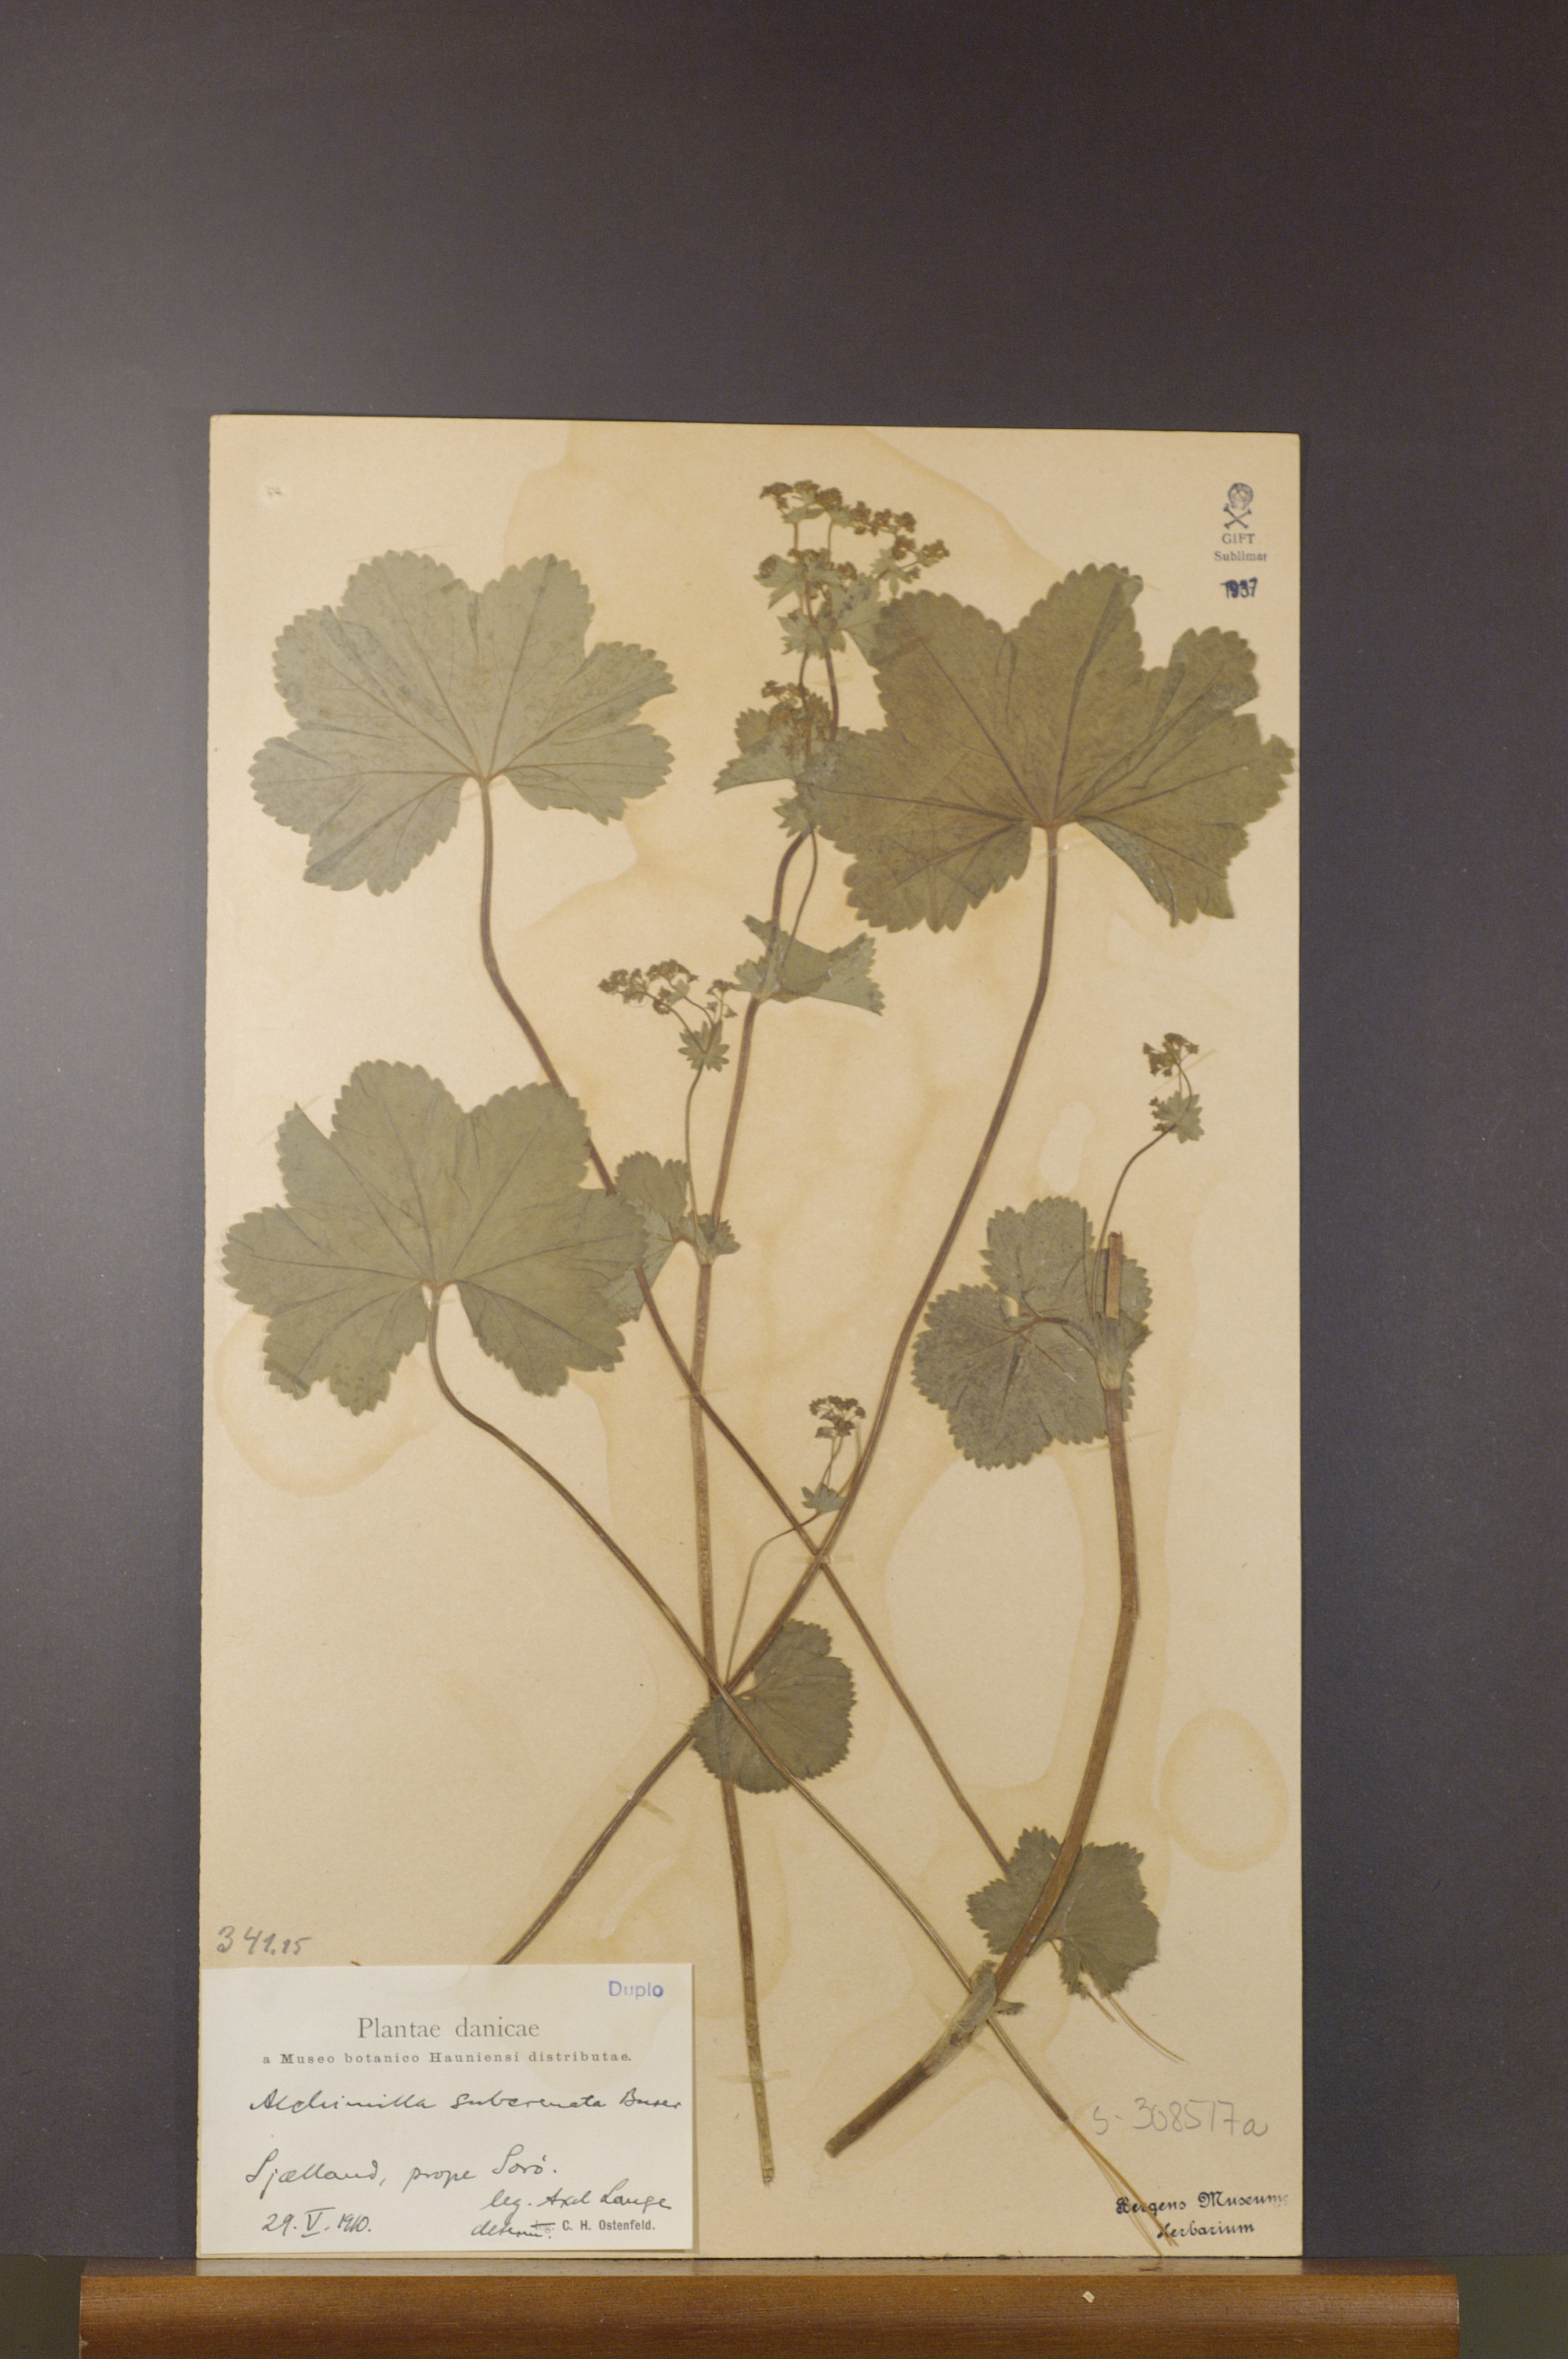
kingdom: Plantae
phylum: Tracheophyta
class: Magnoliopsida
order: Rosales
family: Rosaceae
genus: Alchemilla
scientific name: Alchemilla subcrenata
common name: Broadtooth lady's mantle
